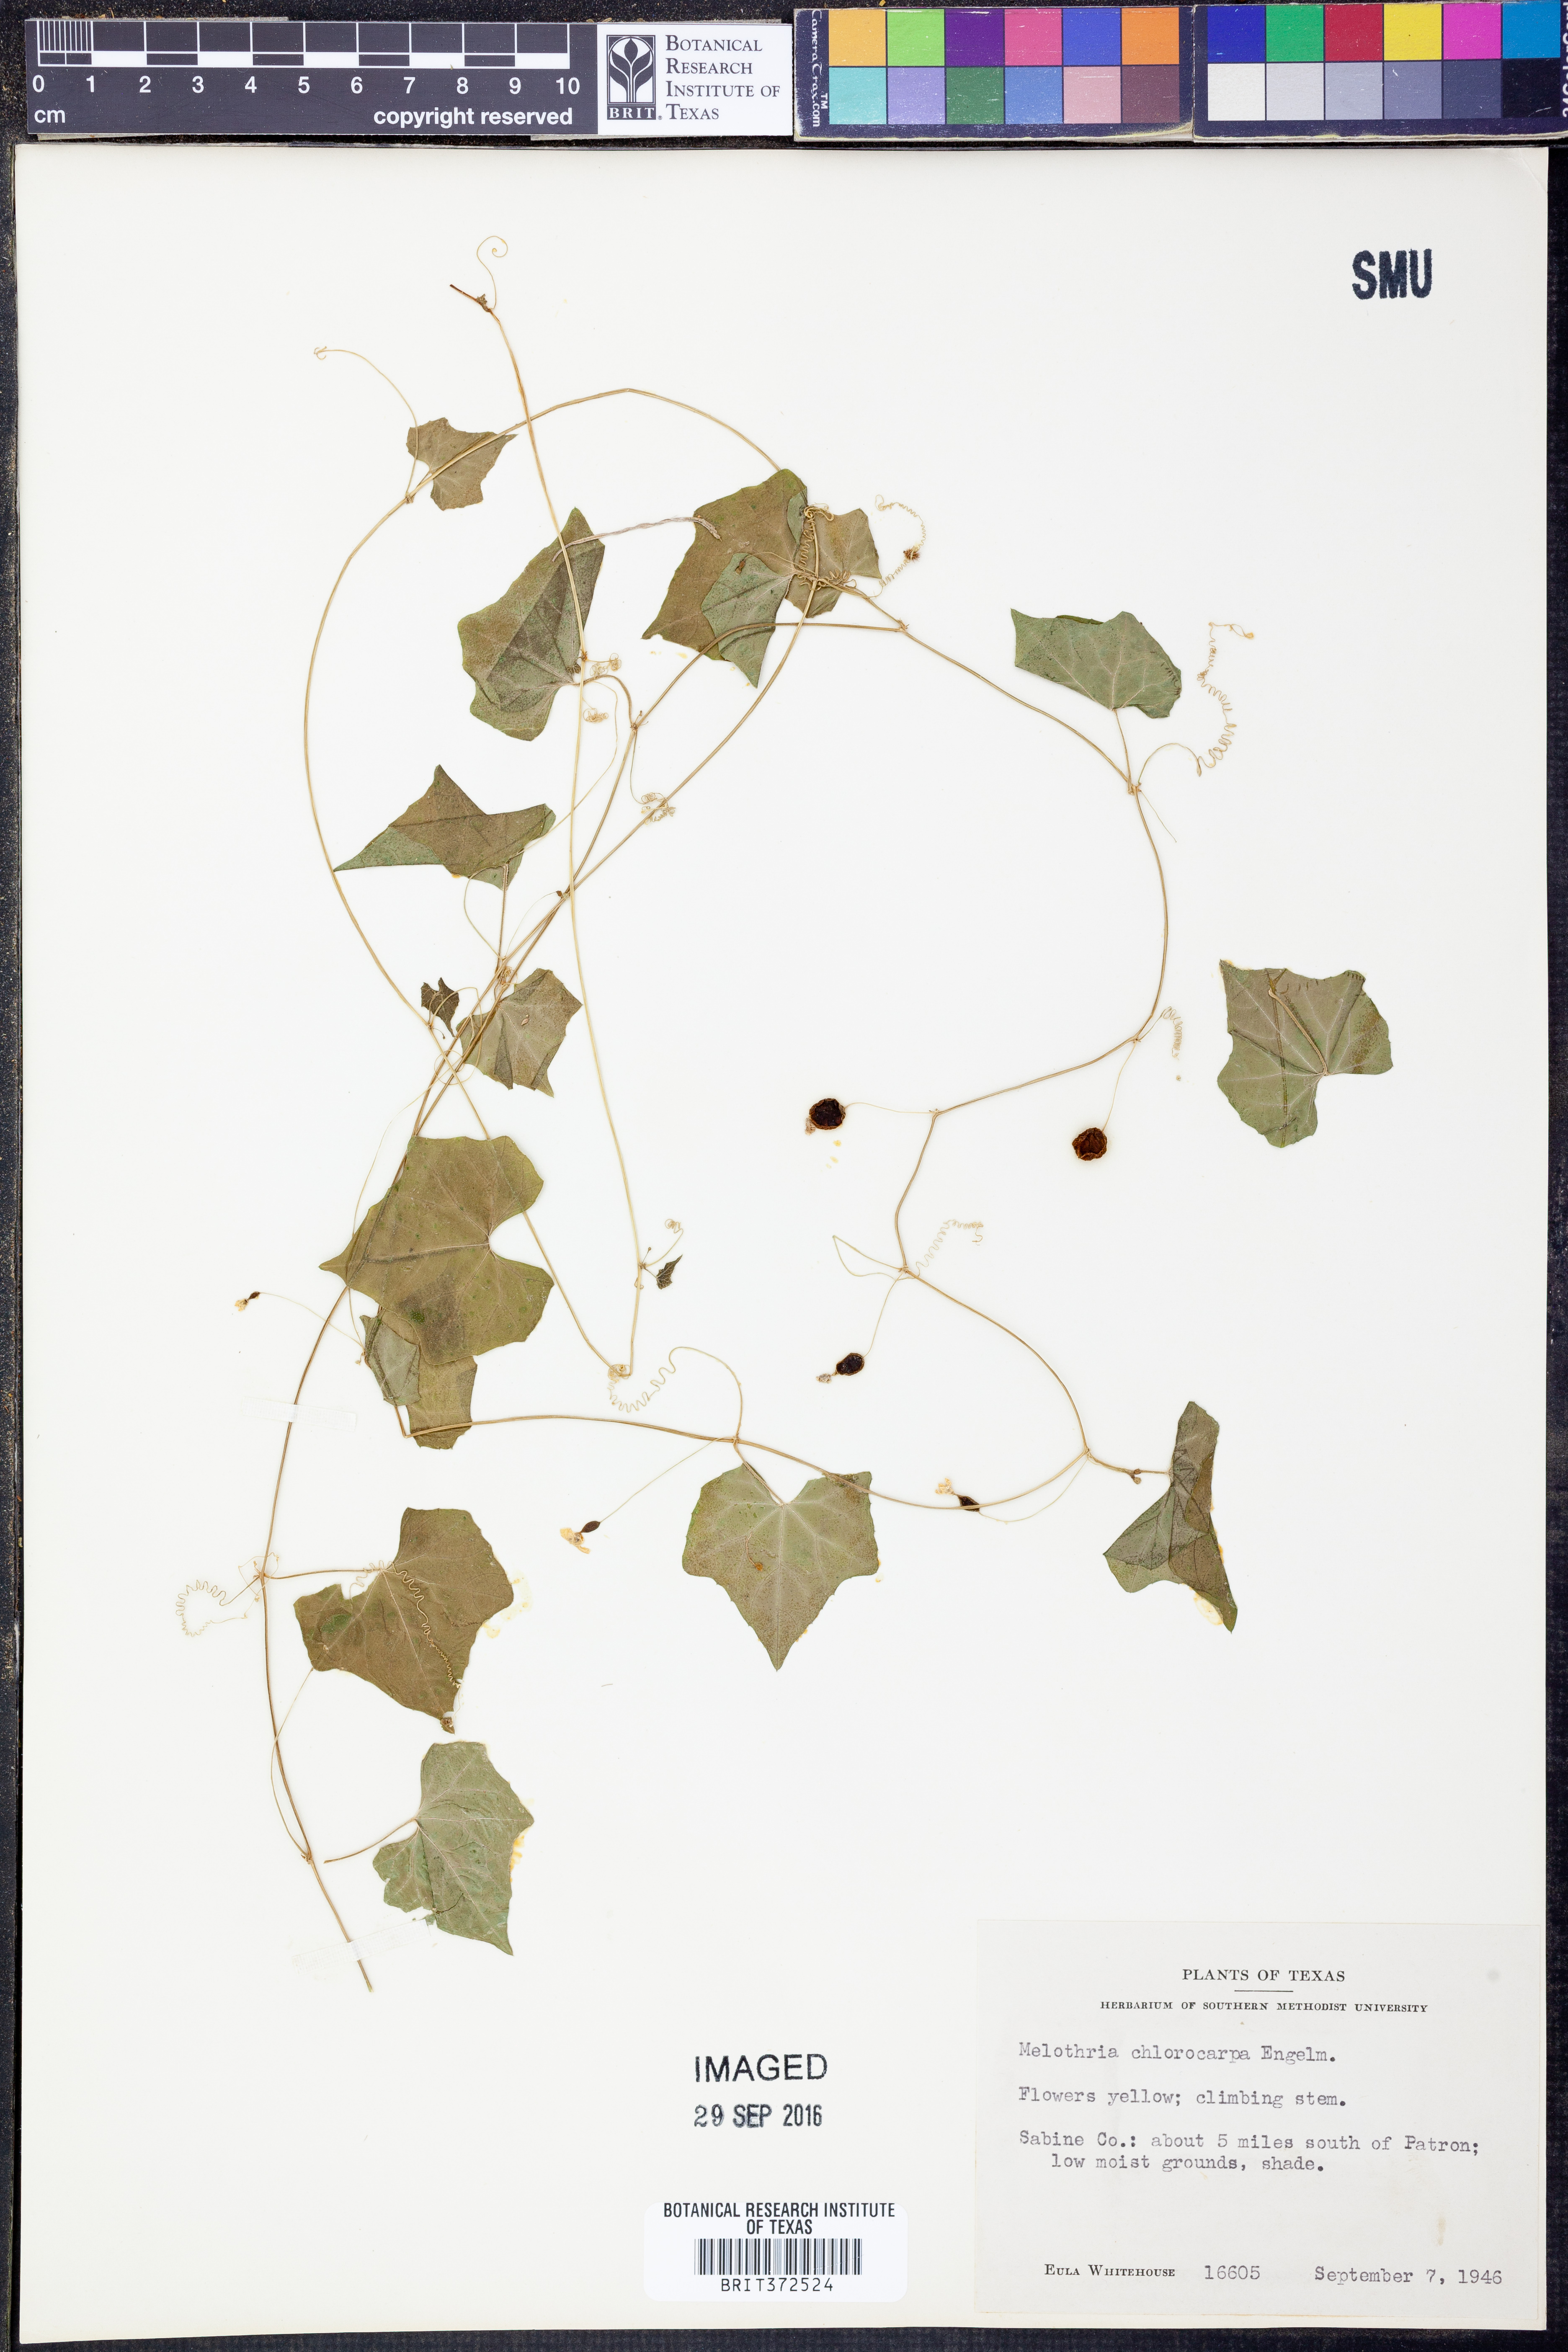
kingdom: Plantae
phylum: Tracheophyta
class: Magnoliopsida
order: Cucurbitales
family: Cucurbitaceae
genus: Melothria
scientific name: Melothria pendula
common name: Creeping-cucumber
